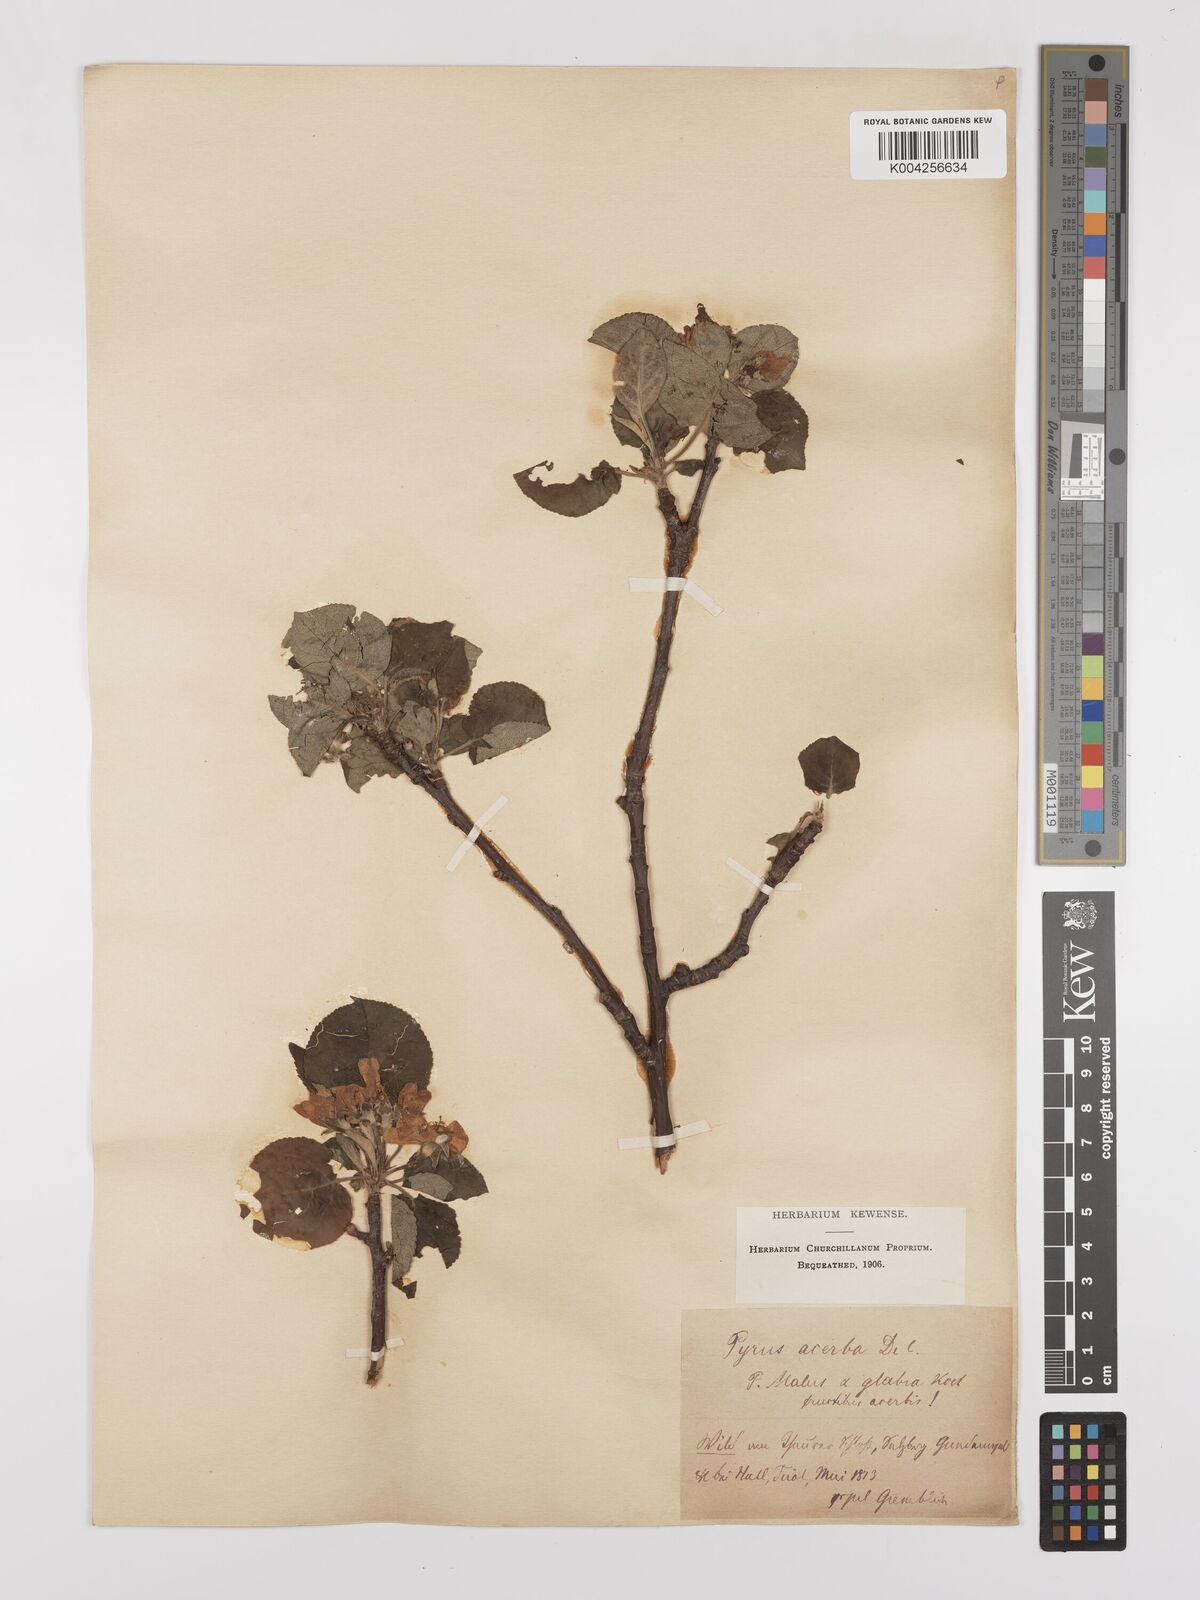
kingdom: Plantae
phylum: Tracheophyta
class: Magnoliopsida
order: Rosales
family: Rosaceae
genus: Malus
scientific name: Malus domestica
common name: Apple
